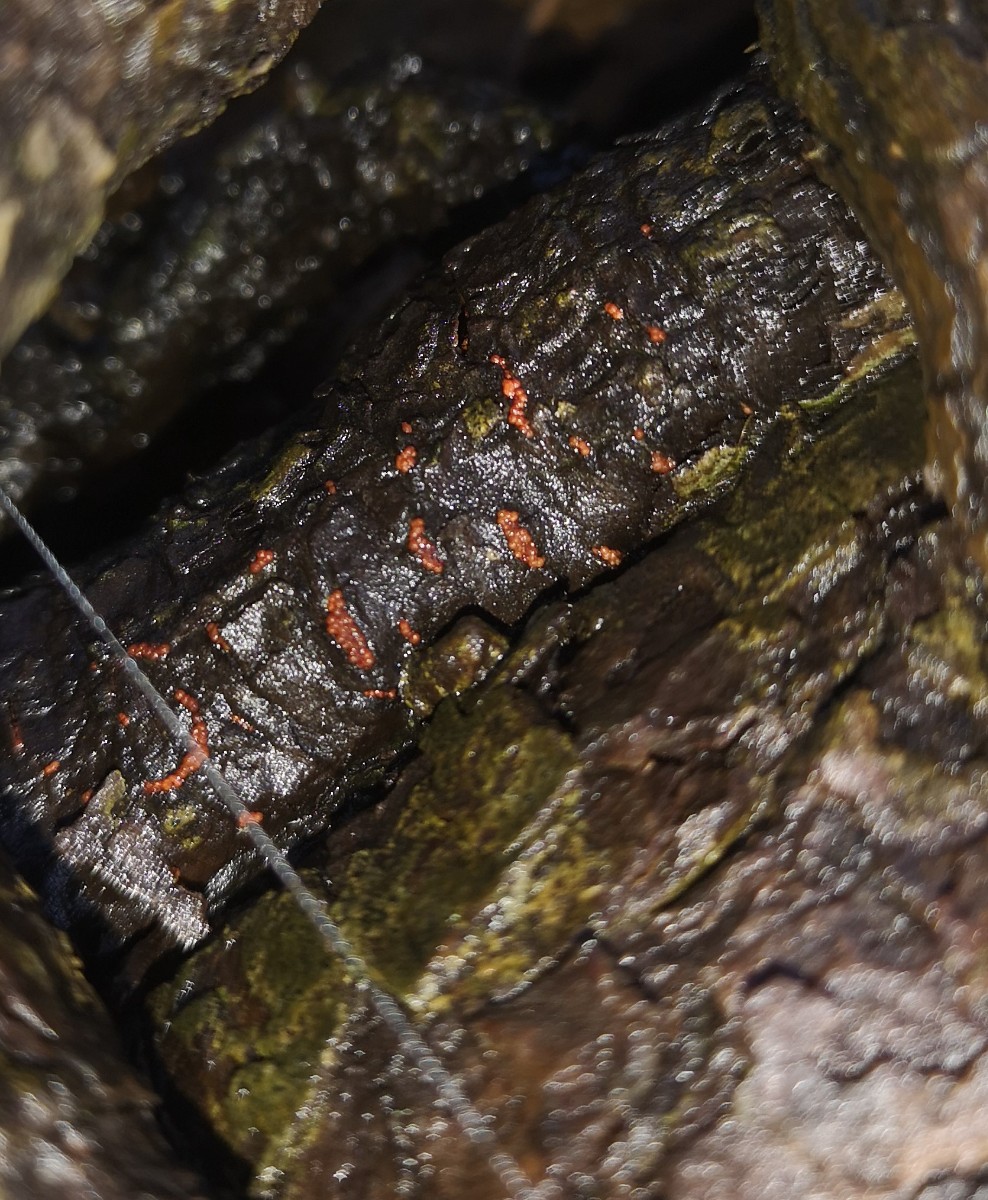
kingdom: Fungi
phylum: Ascomycota
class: Sordariomycetes
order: Hypocreales
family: Nectriaceae
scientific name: Nectriaceae
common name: cinnobersvampfamilien
